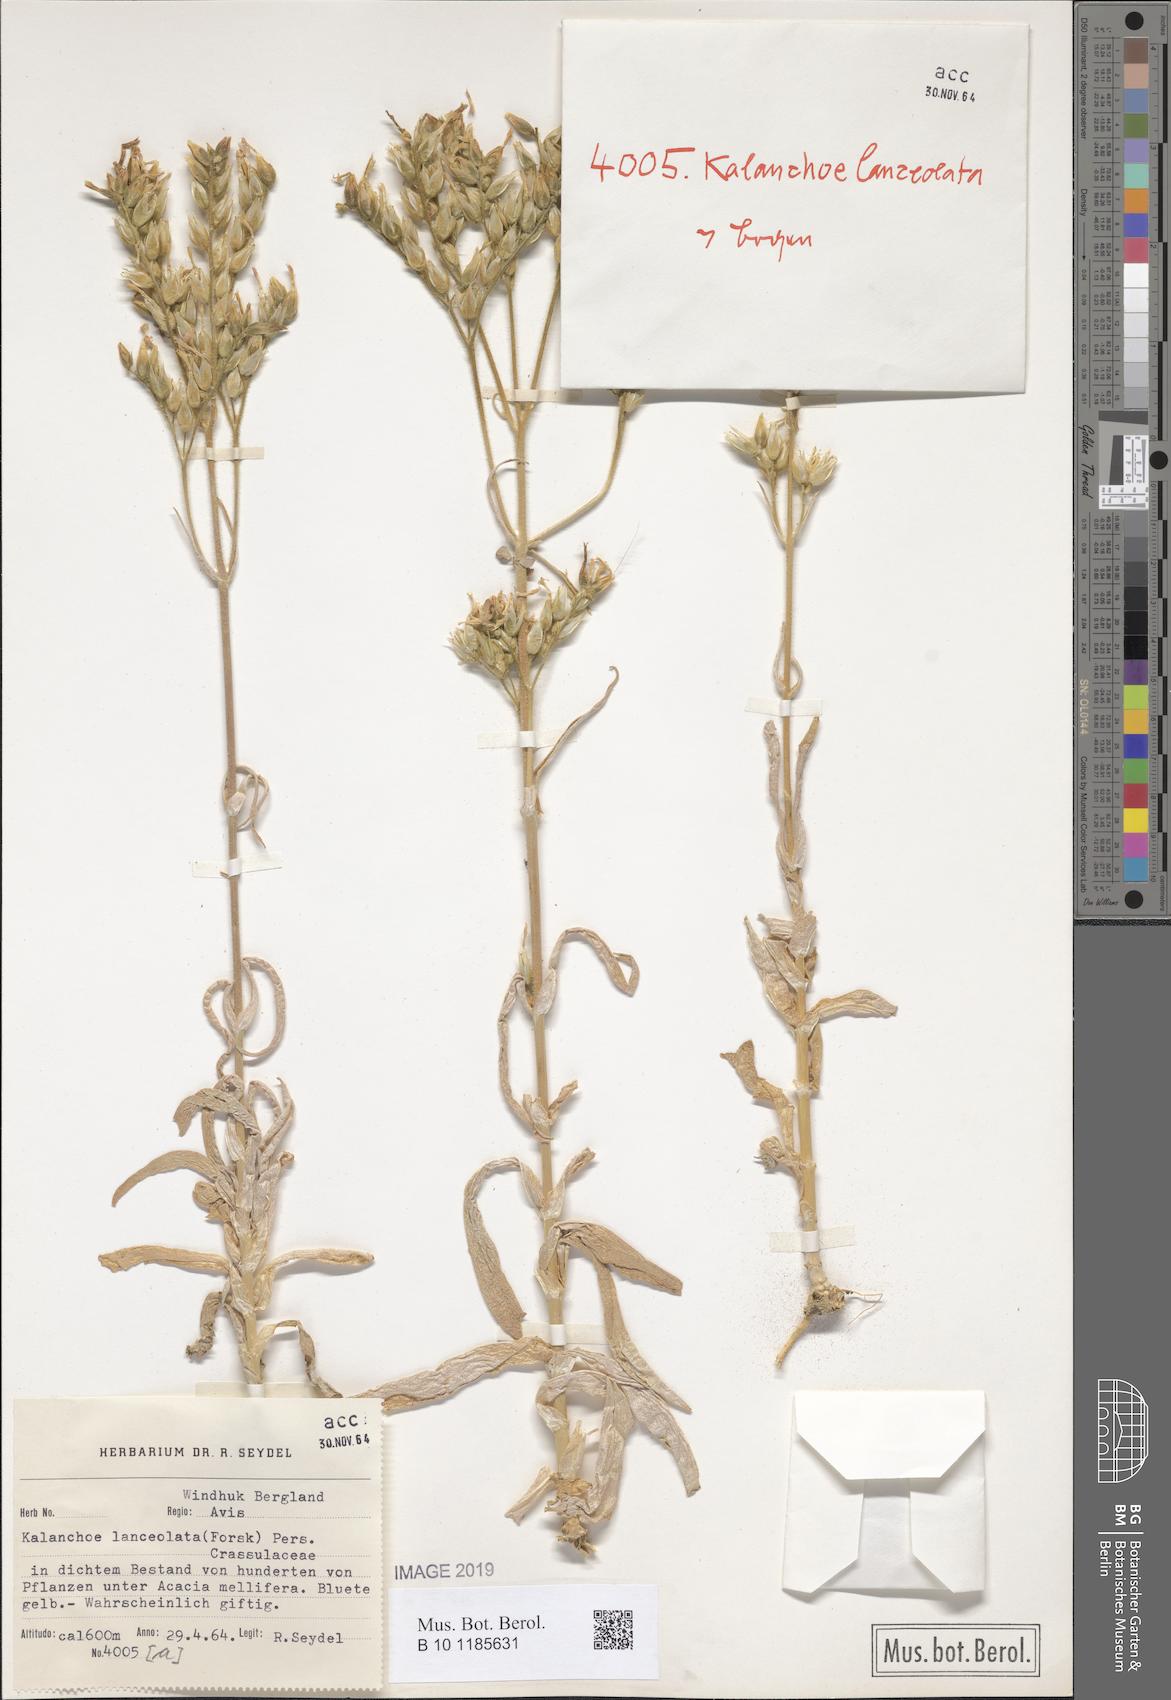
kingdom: Plantae
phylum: Tracheophyta
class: Magnoliopsida
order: Saxifragales
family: Crassulaceae
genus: Kalanchoe
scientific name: Kalanchoe lanceolata
